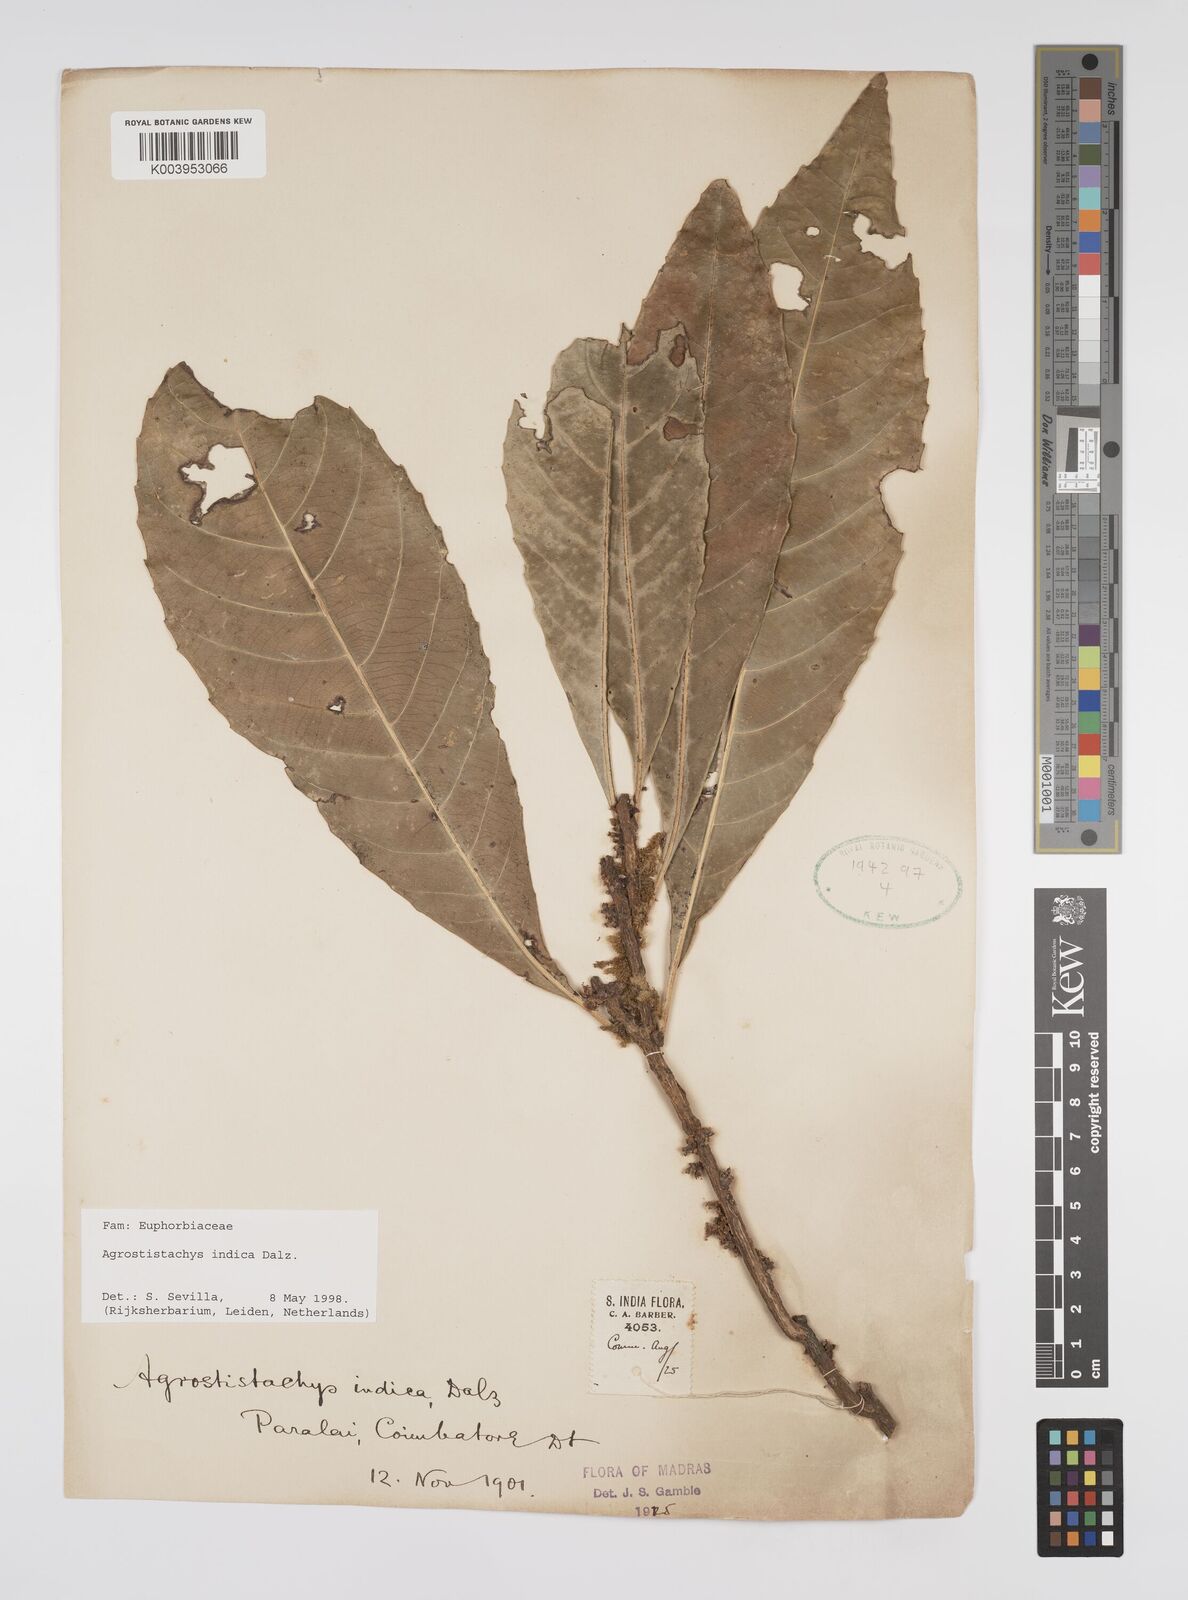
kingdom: Plantae
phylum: Tracheophyta
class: Magnoliopsida
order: Malpighiales
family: Euphorbiaceae
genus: Agrostistachys
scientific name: Agrostistachys indica
